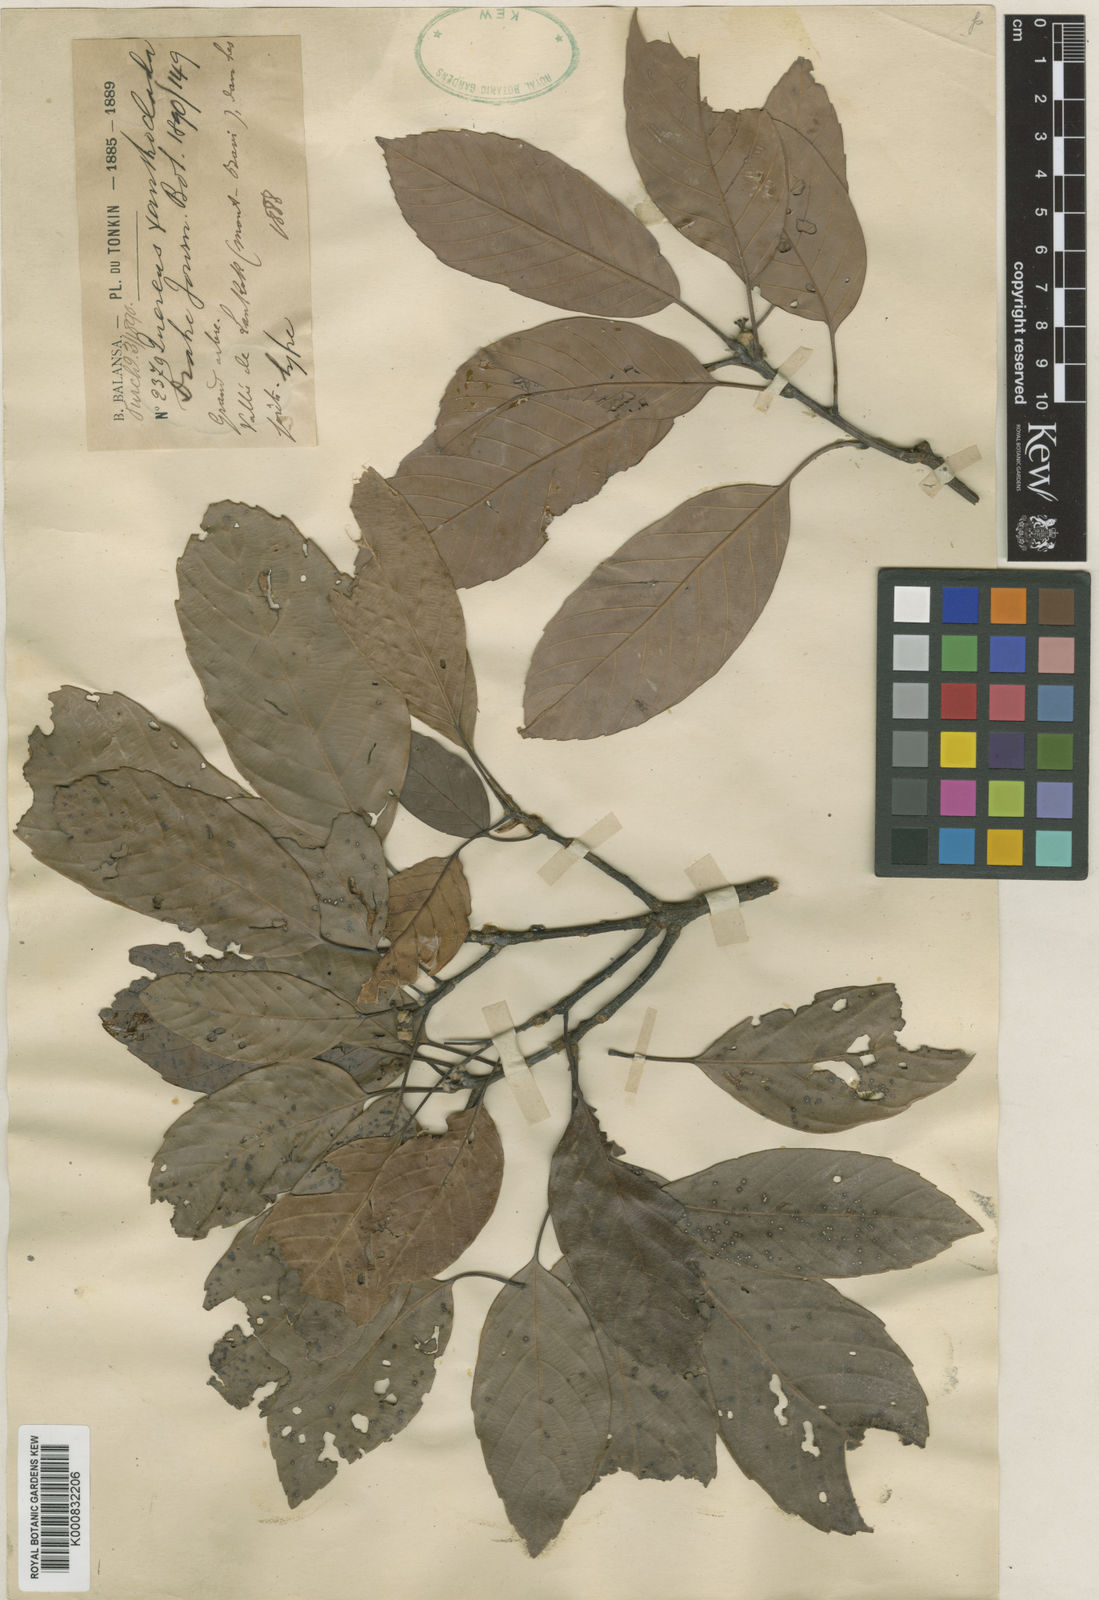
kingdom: Plantae
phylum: Tracheophyta
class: Magnoliopsida
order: Fagales
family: Fagaceae
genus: Quercus
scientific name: Quercus xanthoclada
